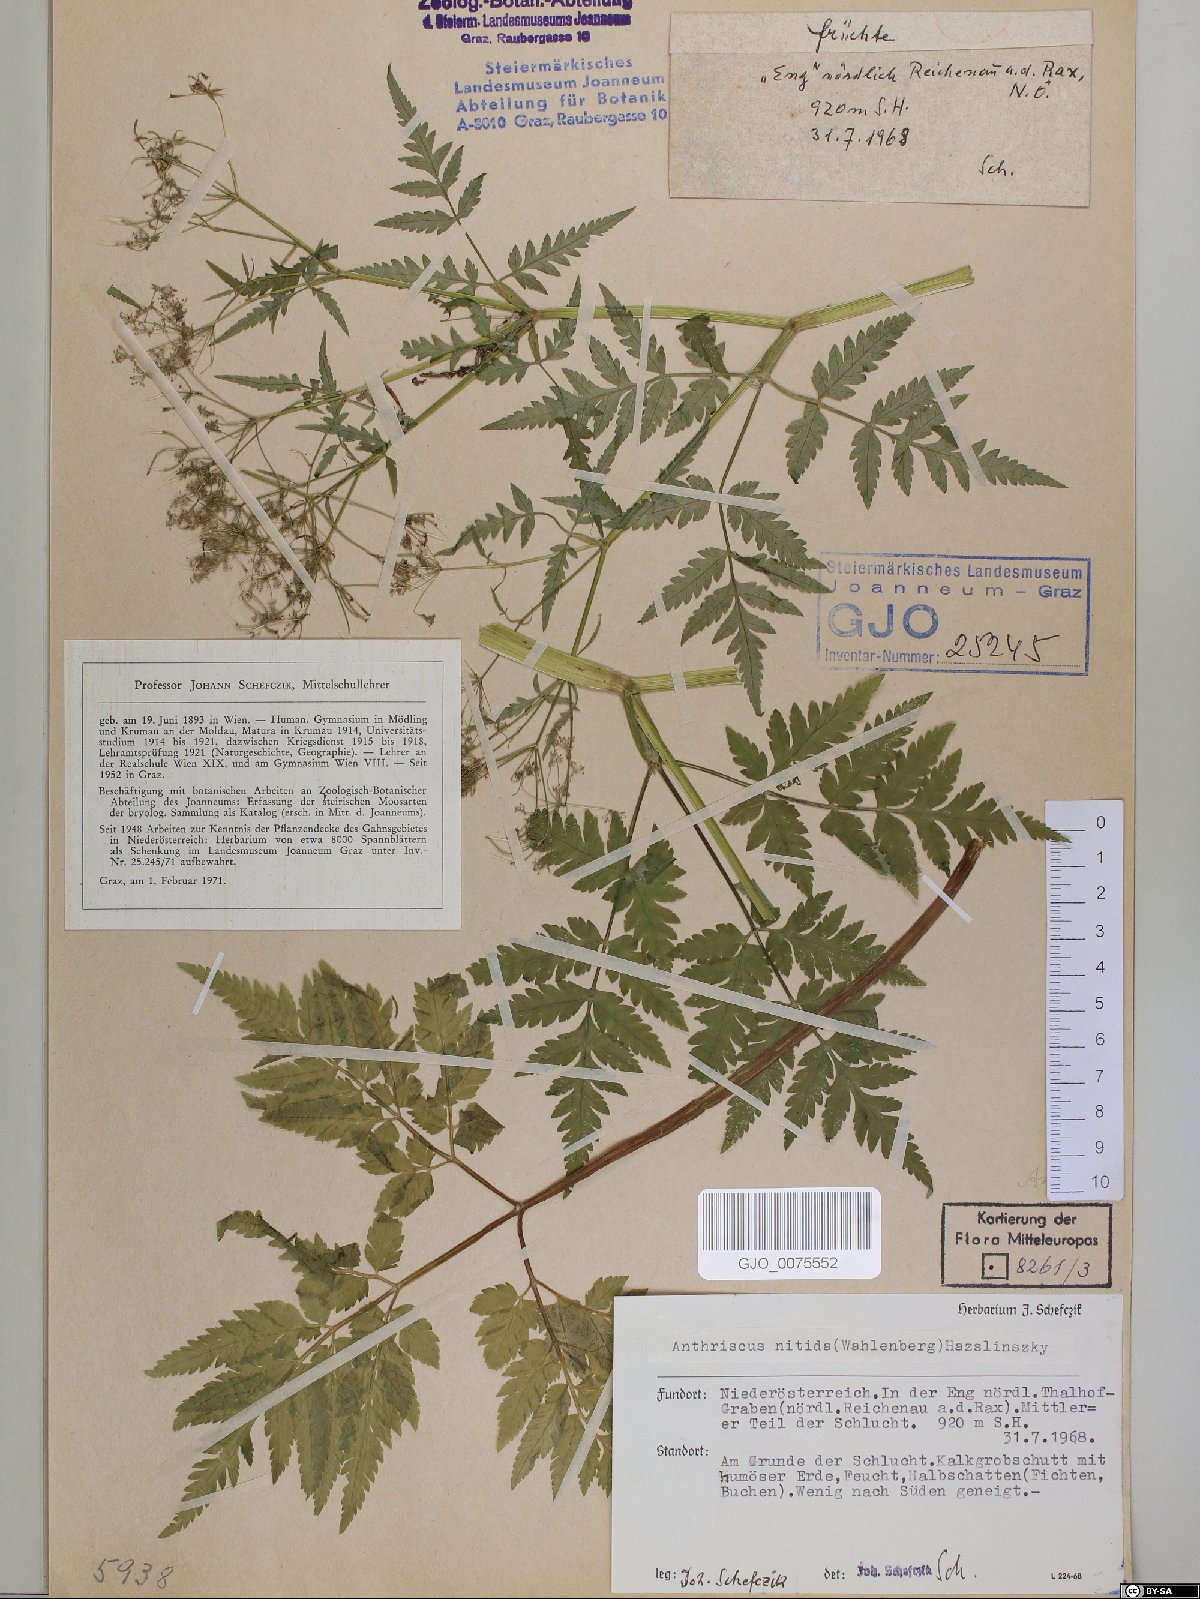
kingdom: Plantae
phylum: Tracheophyta
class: Magnoliopsida
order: Apiales
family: Apiaceae
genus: Anthriscus
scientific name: Anthriscus nitida
